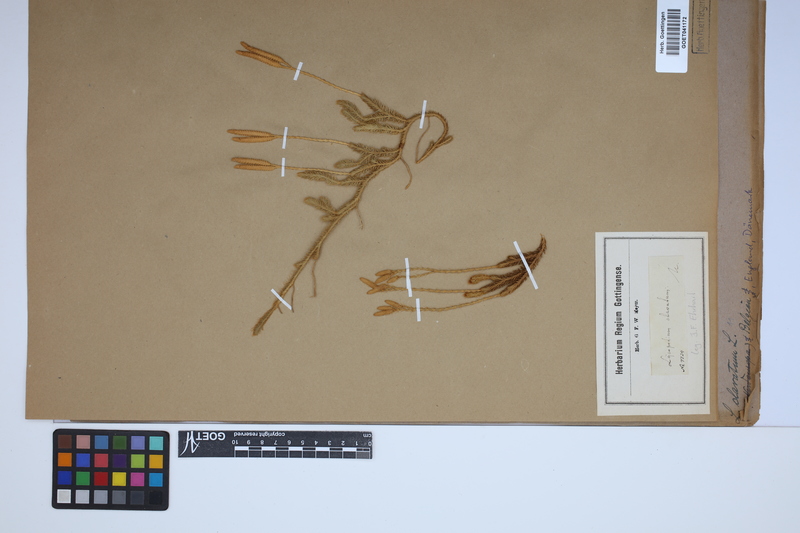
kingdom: Plantae
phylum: Tracheophyta
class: Lycopodiopsida
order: Lycopodiales
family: Lycopodiaceae
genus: Lycopodium
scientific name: Lycopodium clavatum
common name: Stag's-horn clubmoss
